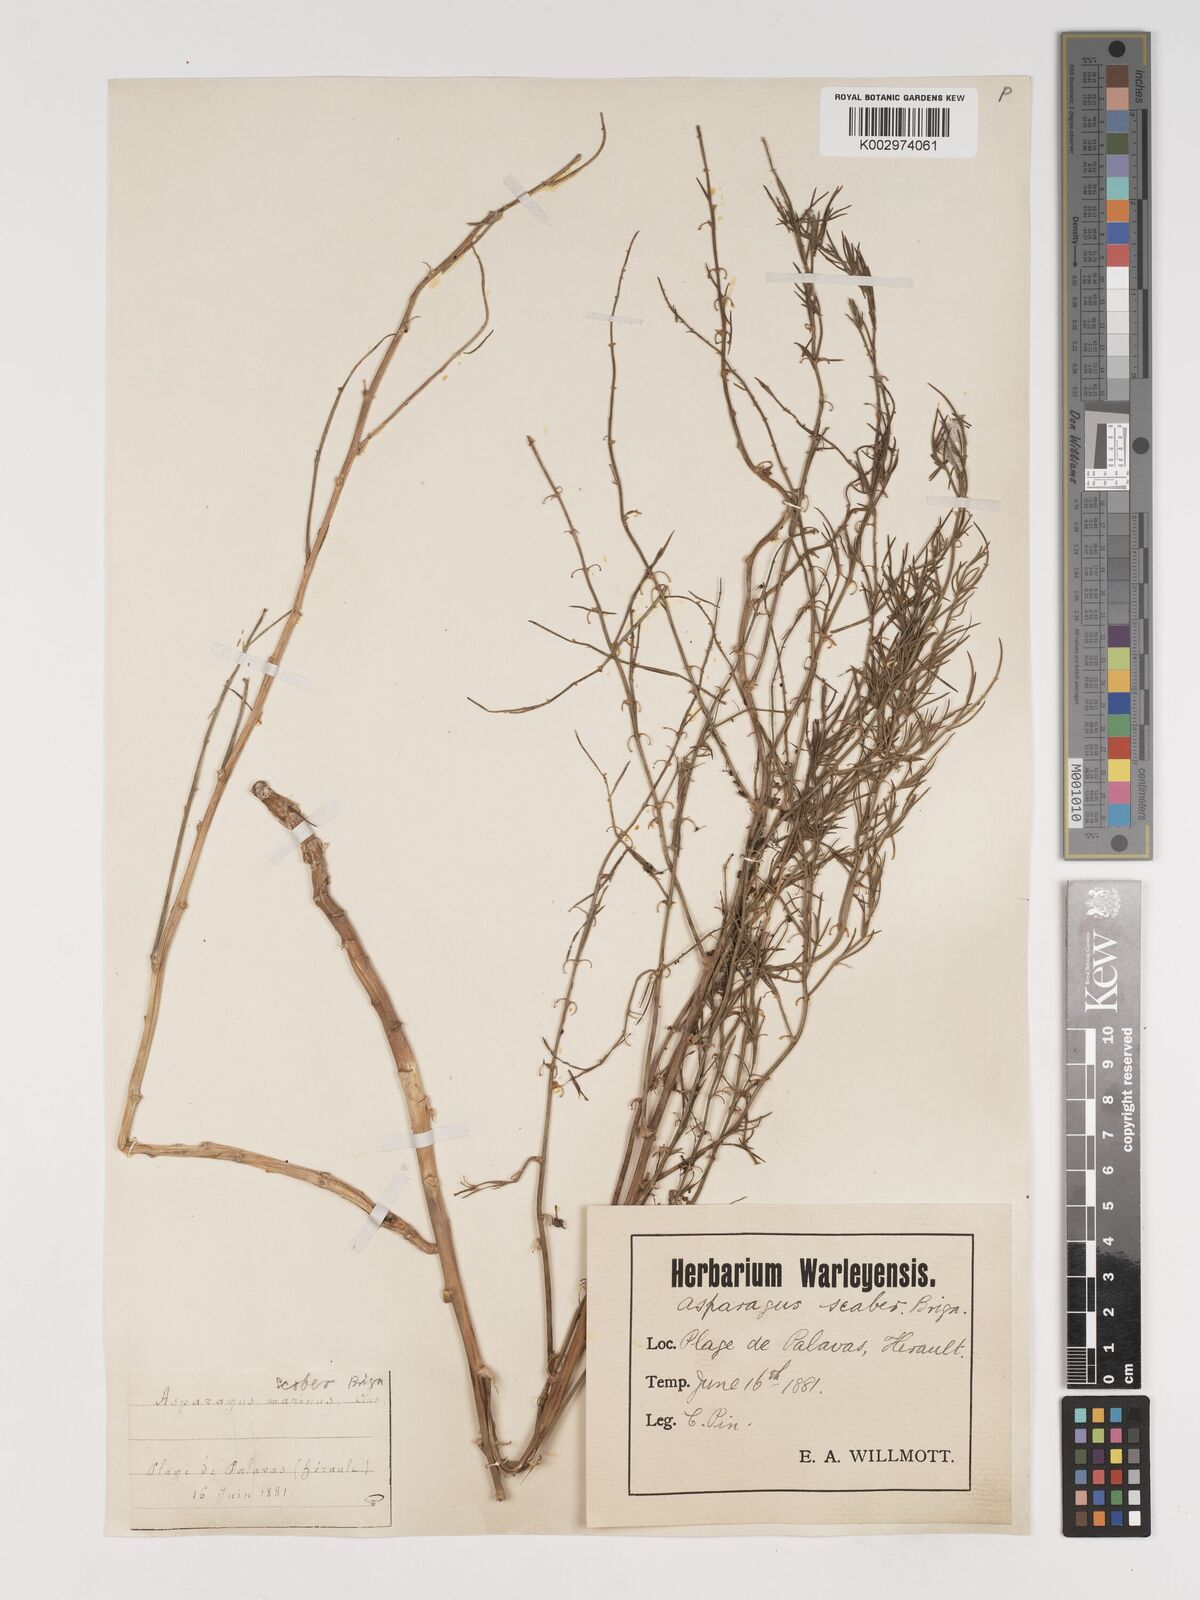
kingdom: Plantae
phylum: Tracheophyta
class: Liliopsida
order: Asparagales
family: Asparagaceae
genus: Asparagus
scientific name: Asparagus maritimus
